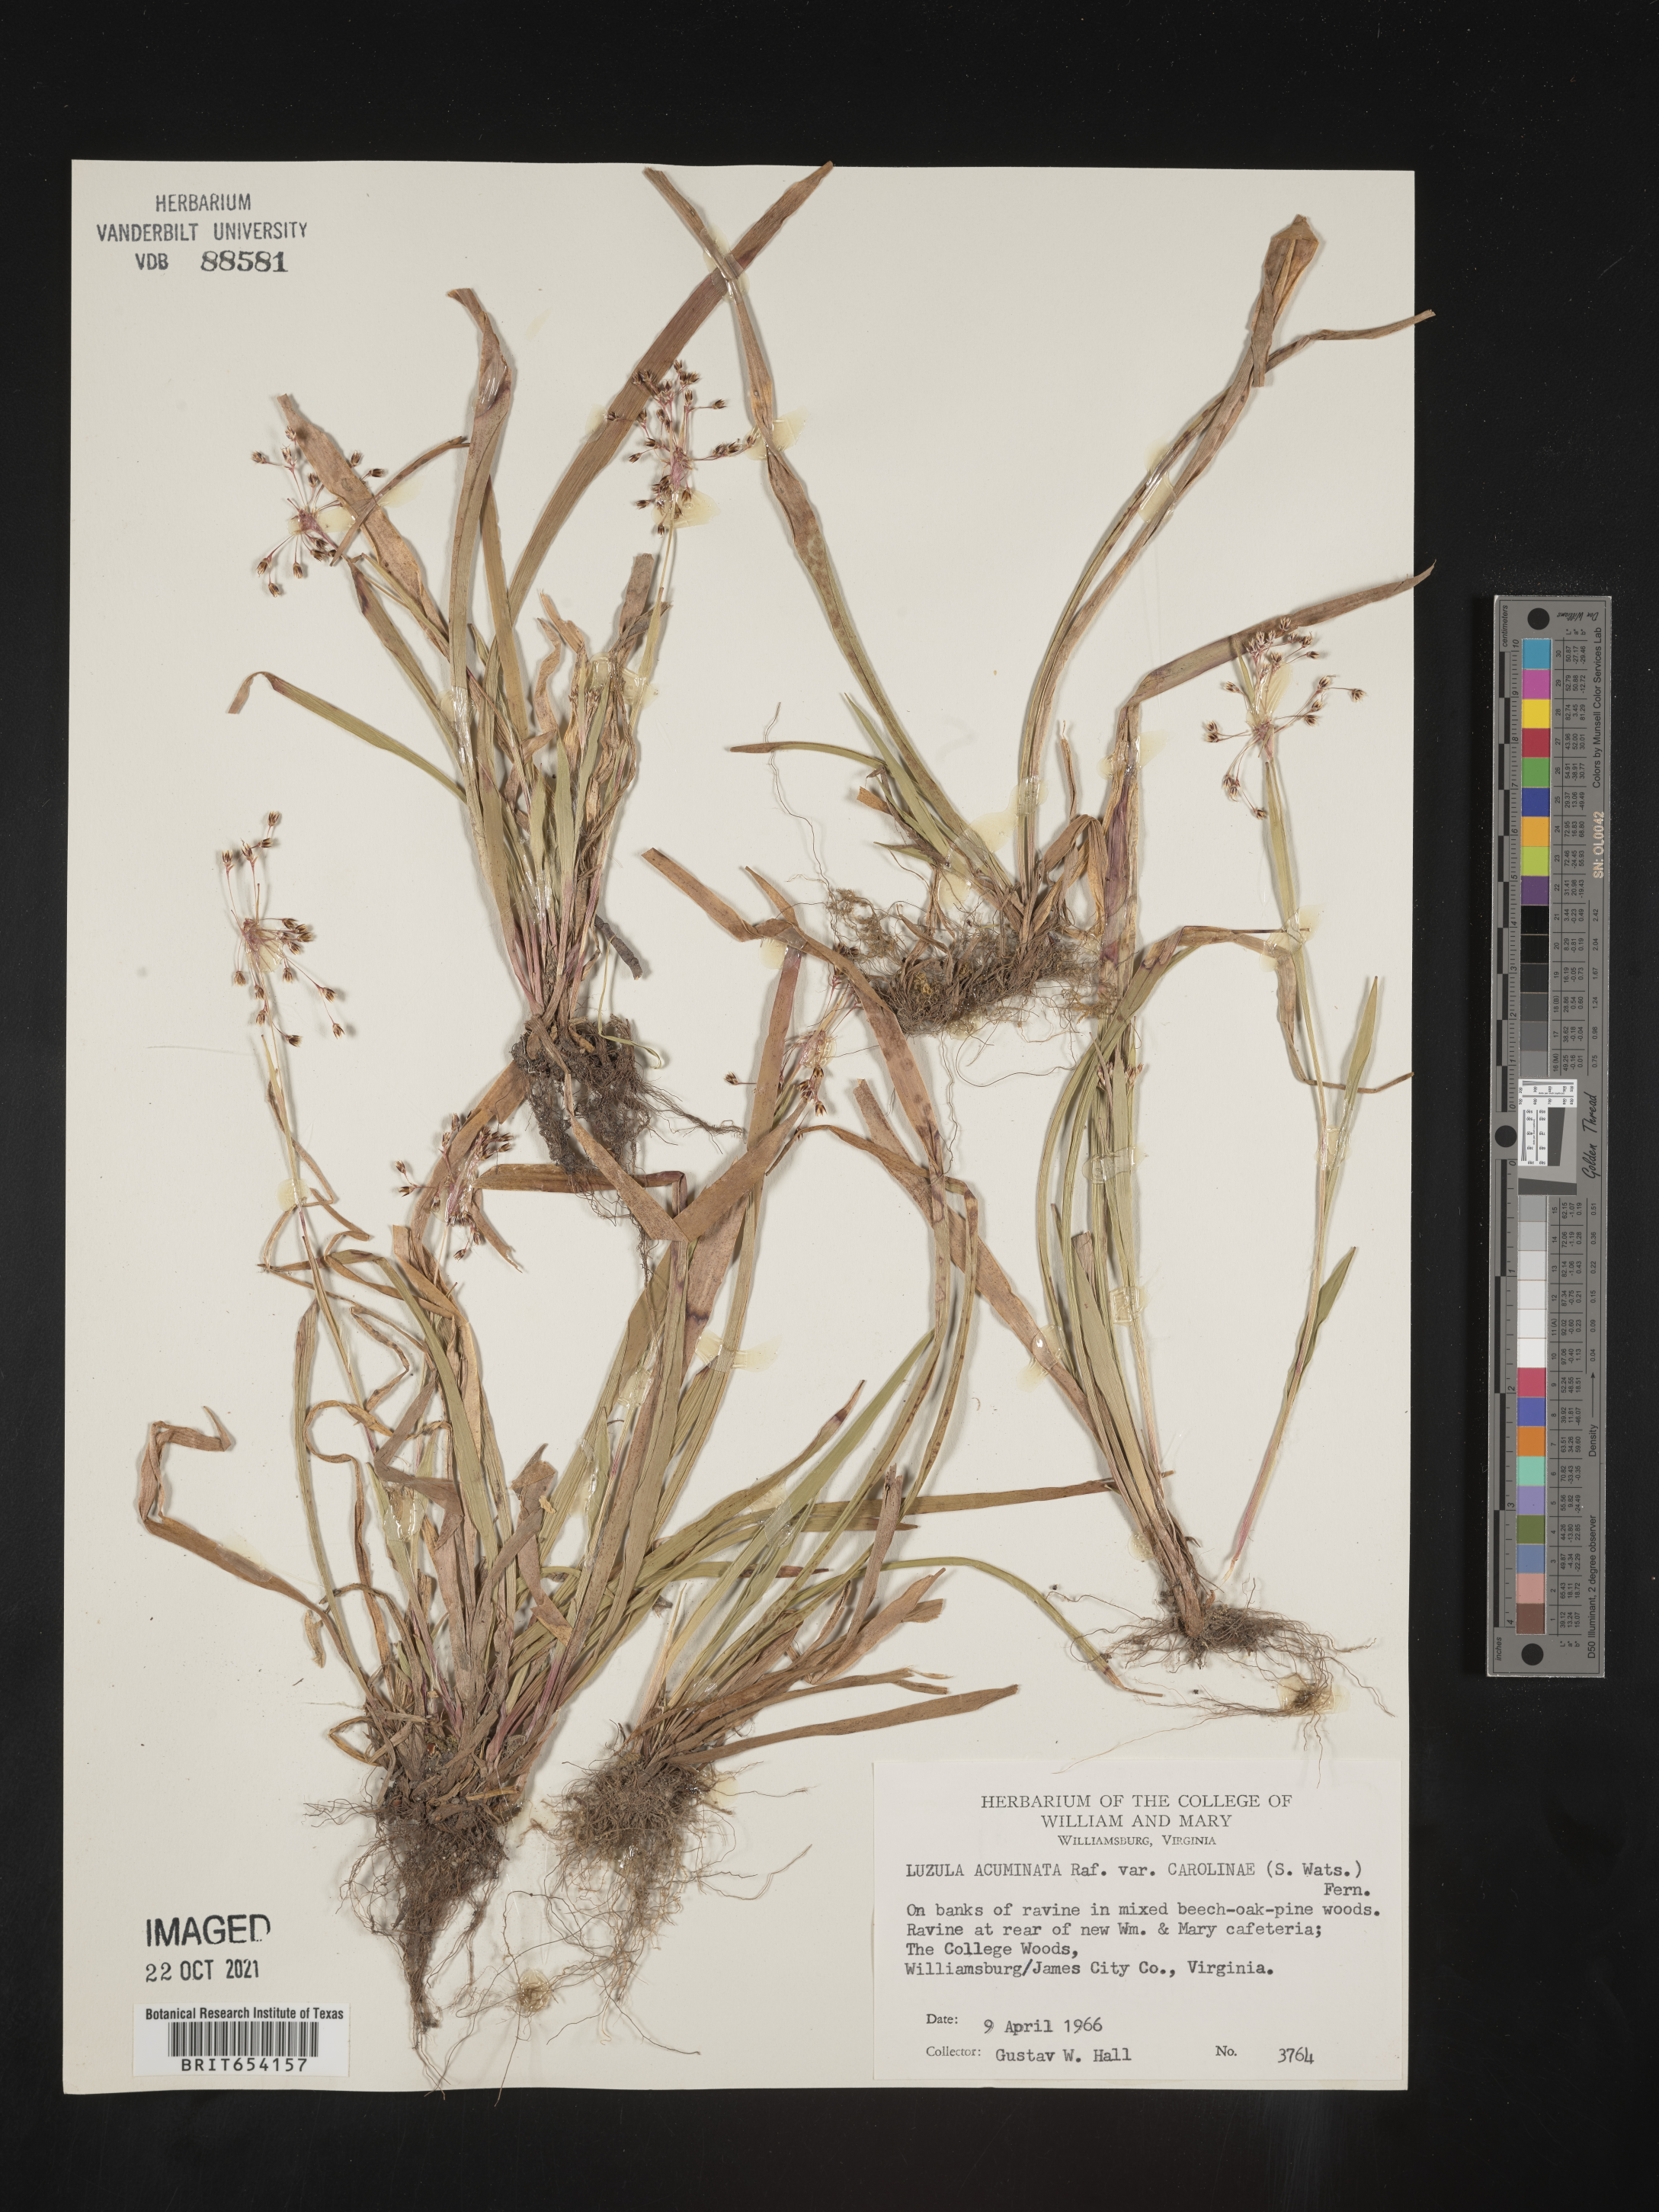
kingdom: Plantae
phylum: Tracheophyta
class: Liliopsida
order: Poales
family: Juncaceae
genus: Luzula
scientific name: Luzula acuminata
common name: Hairy woodrush
